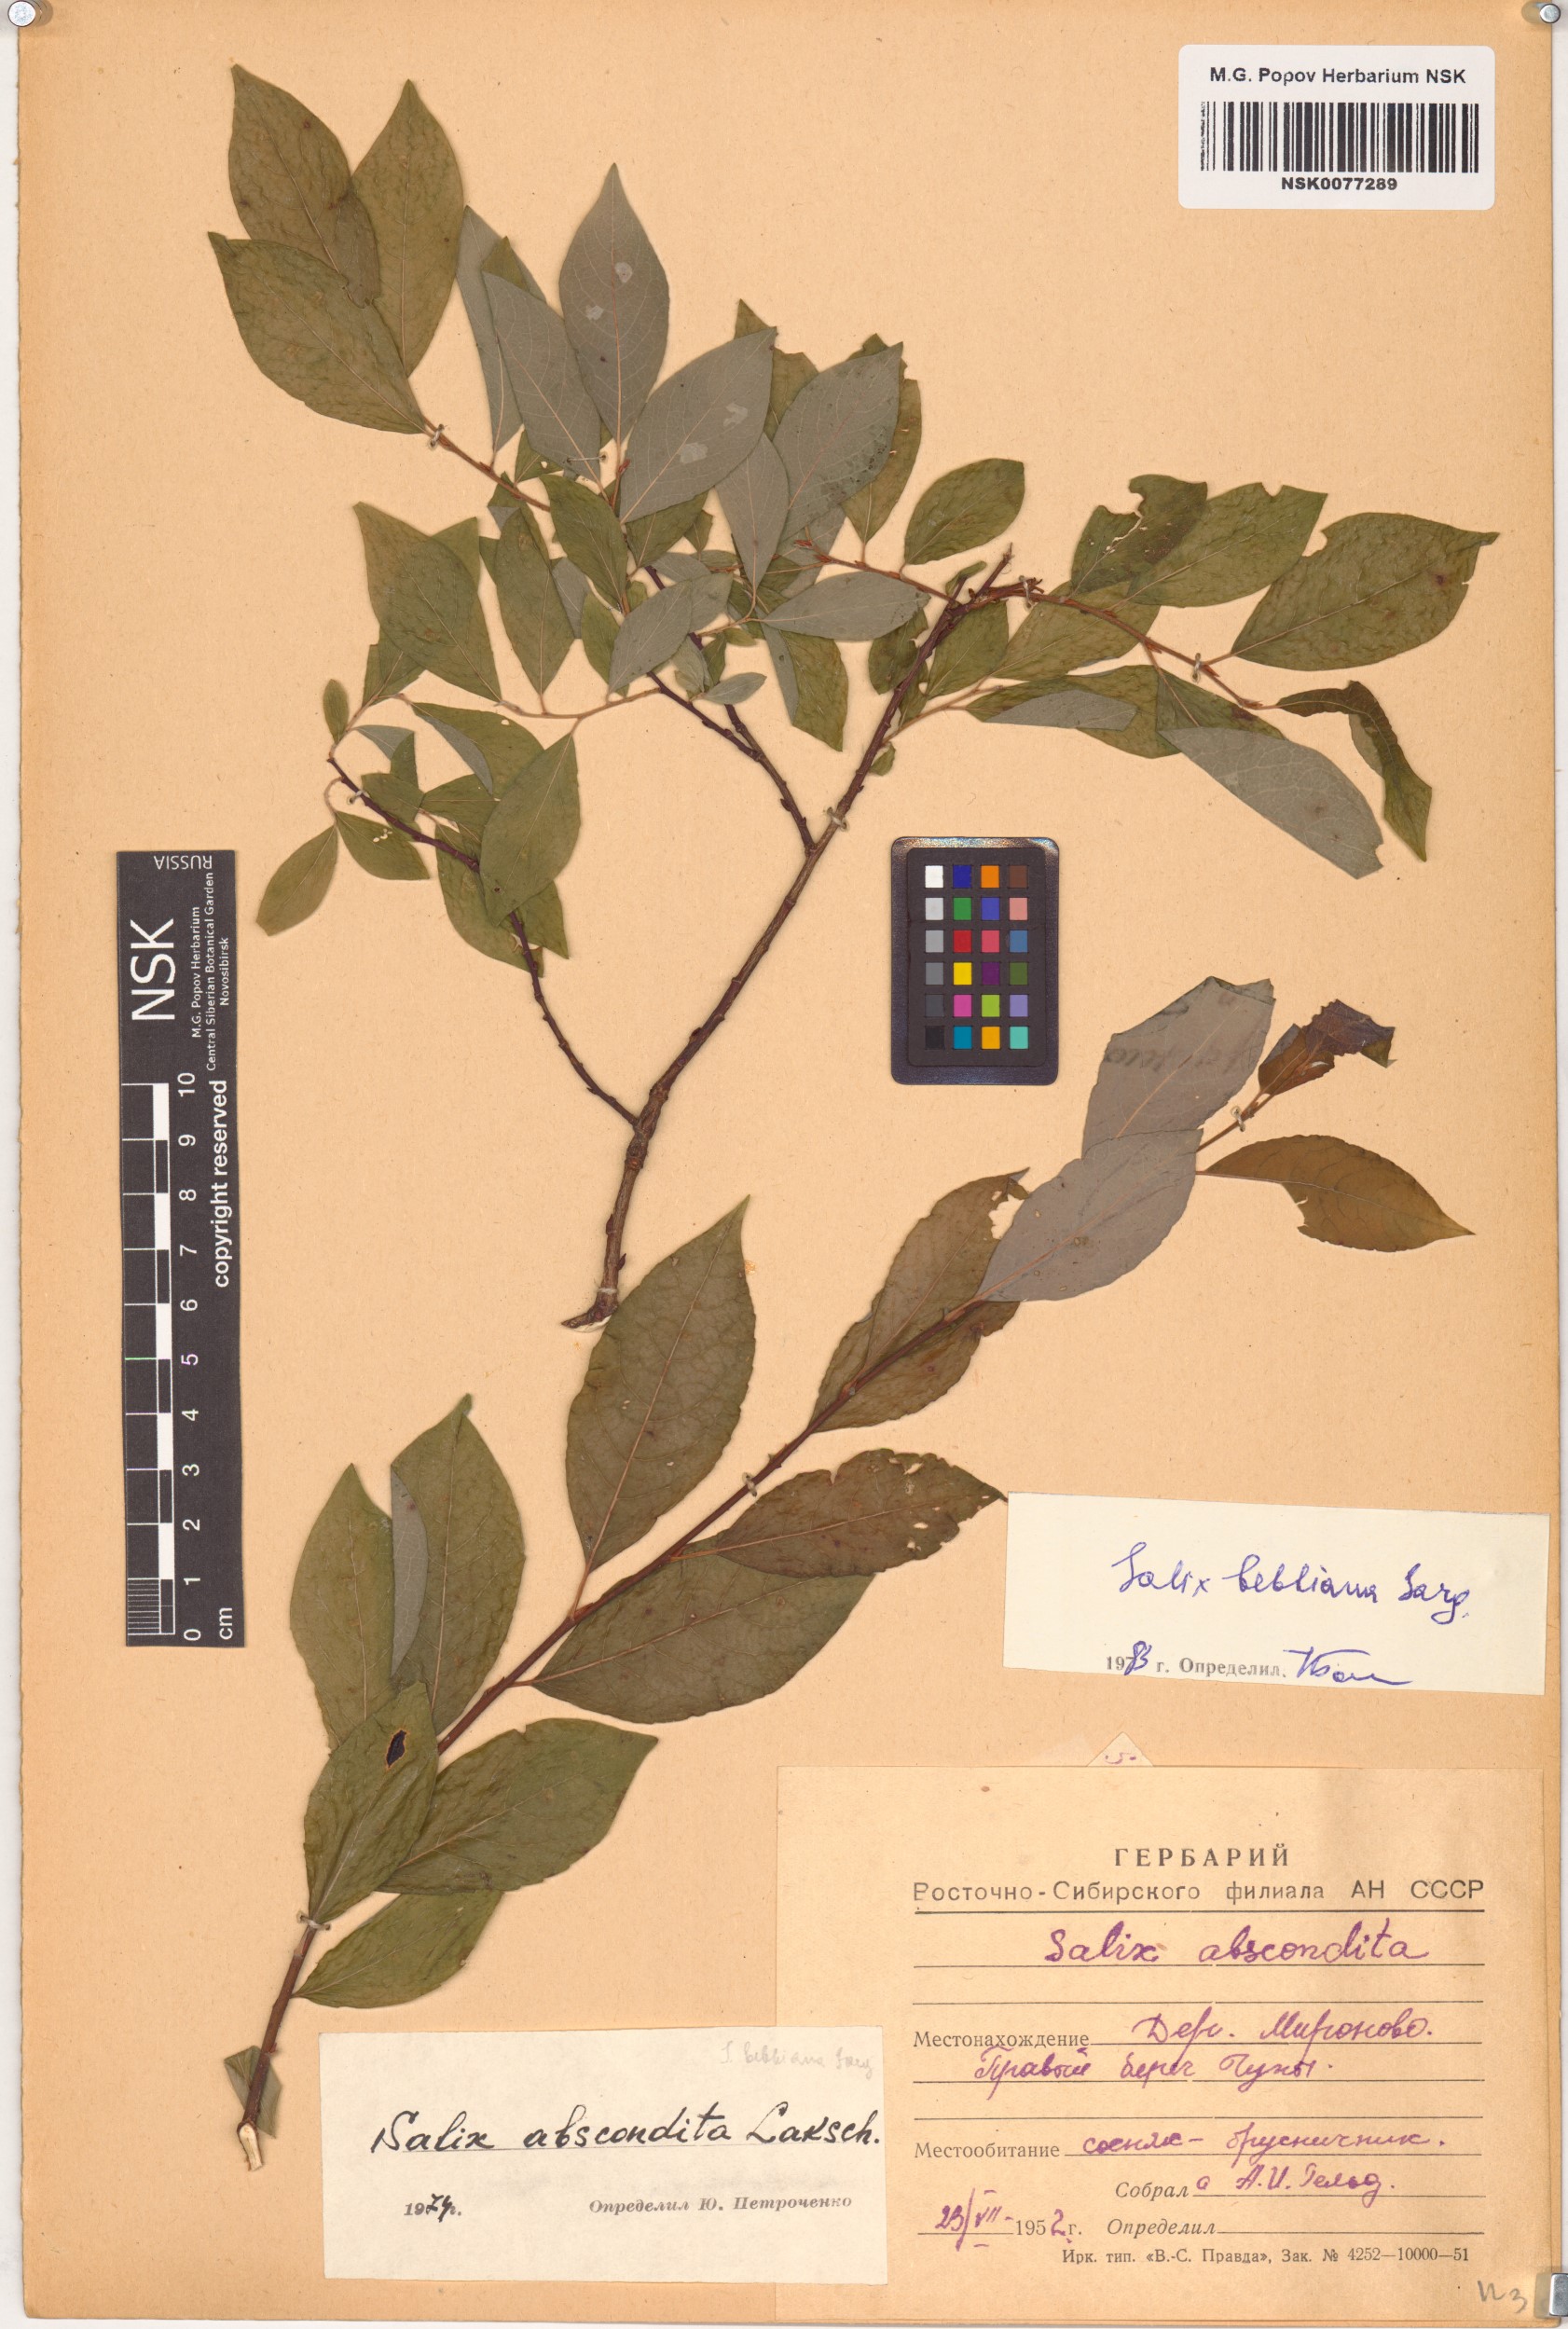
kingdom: Plantae
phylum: Tracheophyta
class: Magnoliopsida
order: Malpighiales
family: Salicaceae
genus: Salix
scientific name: Salix bebbiana
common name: Bebb's willow
